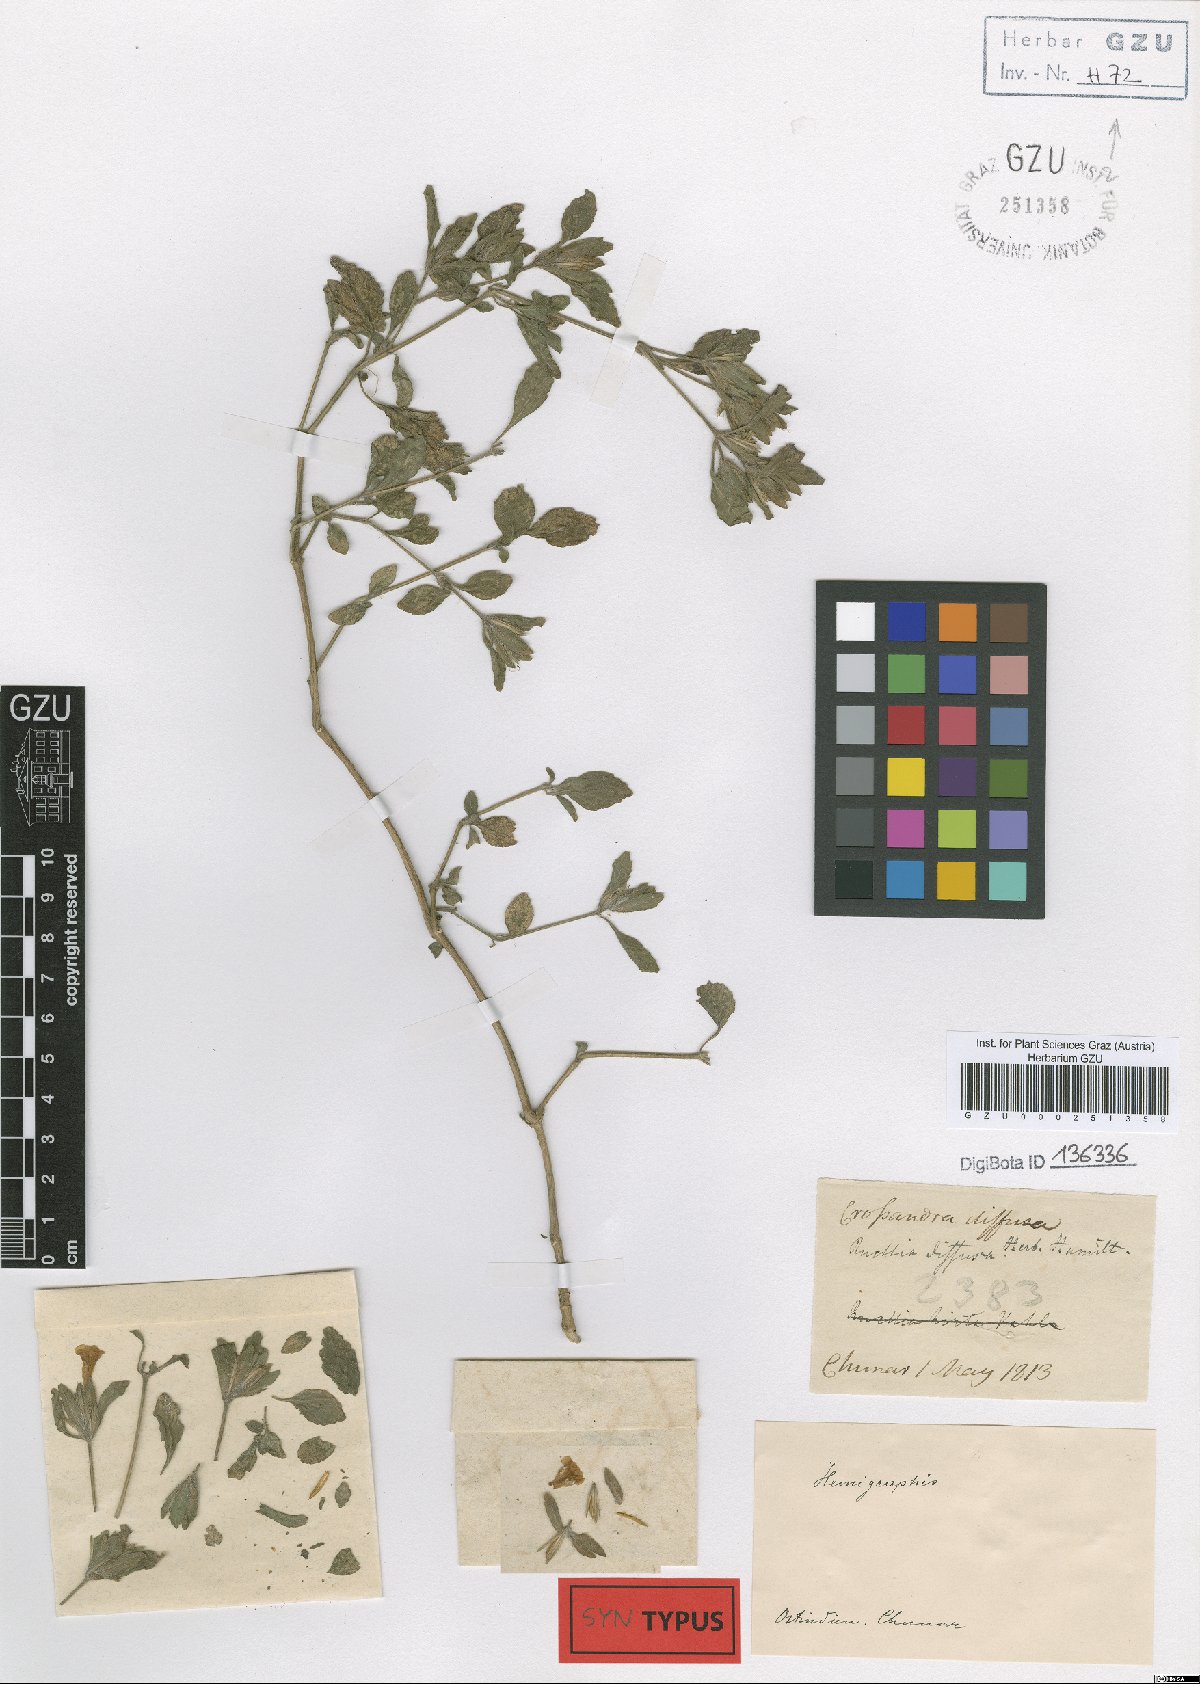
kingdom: Plantae
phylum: Tracheophyta
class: Magnoliopsida
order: Lamiales
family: Acanthaceae
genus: Strobilanthes
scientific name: Strobilanthes
